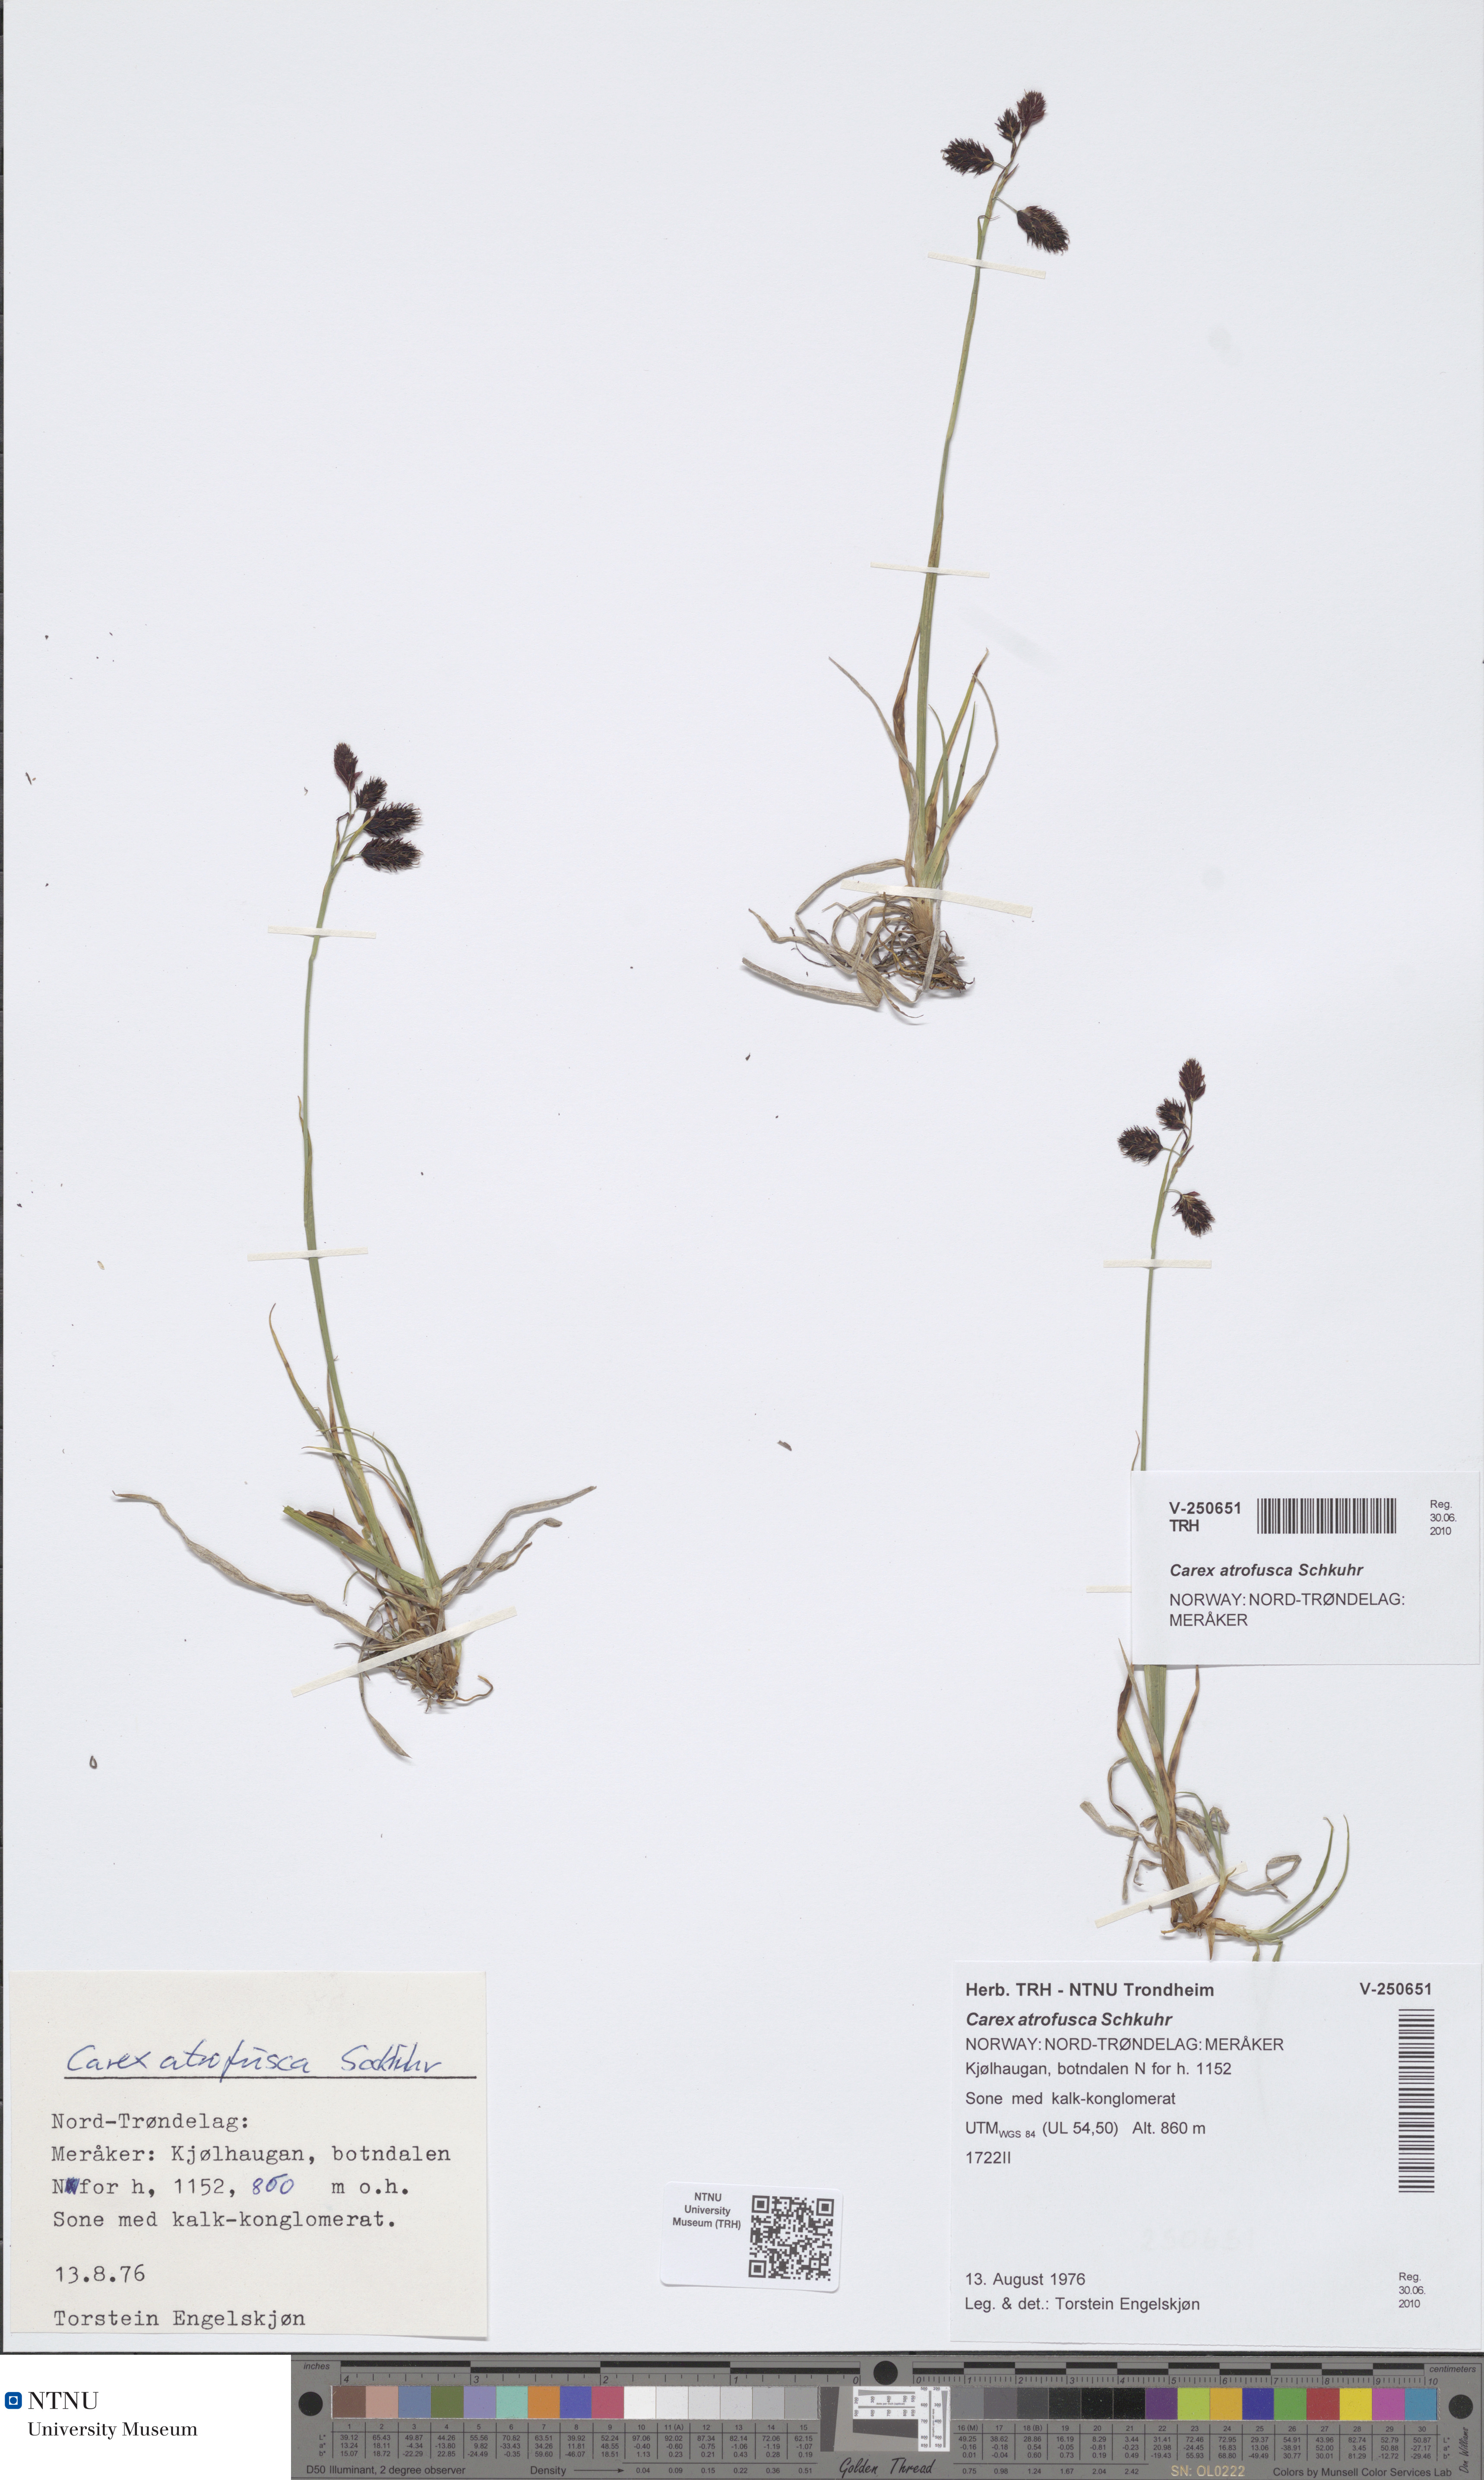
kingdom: Plantae
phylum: Tracheophyta
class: Liliopsida
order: Poales
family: Cyperaceae
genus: Carex
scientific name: Carex atrofusca
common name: Scorched alpine-sedge
